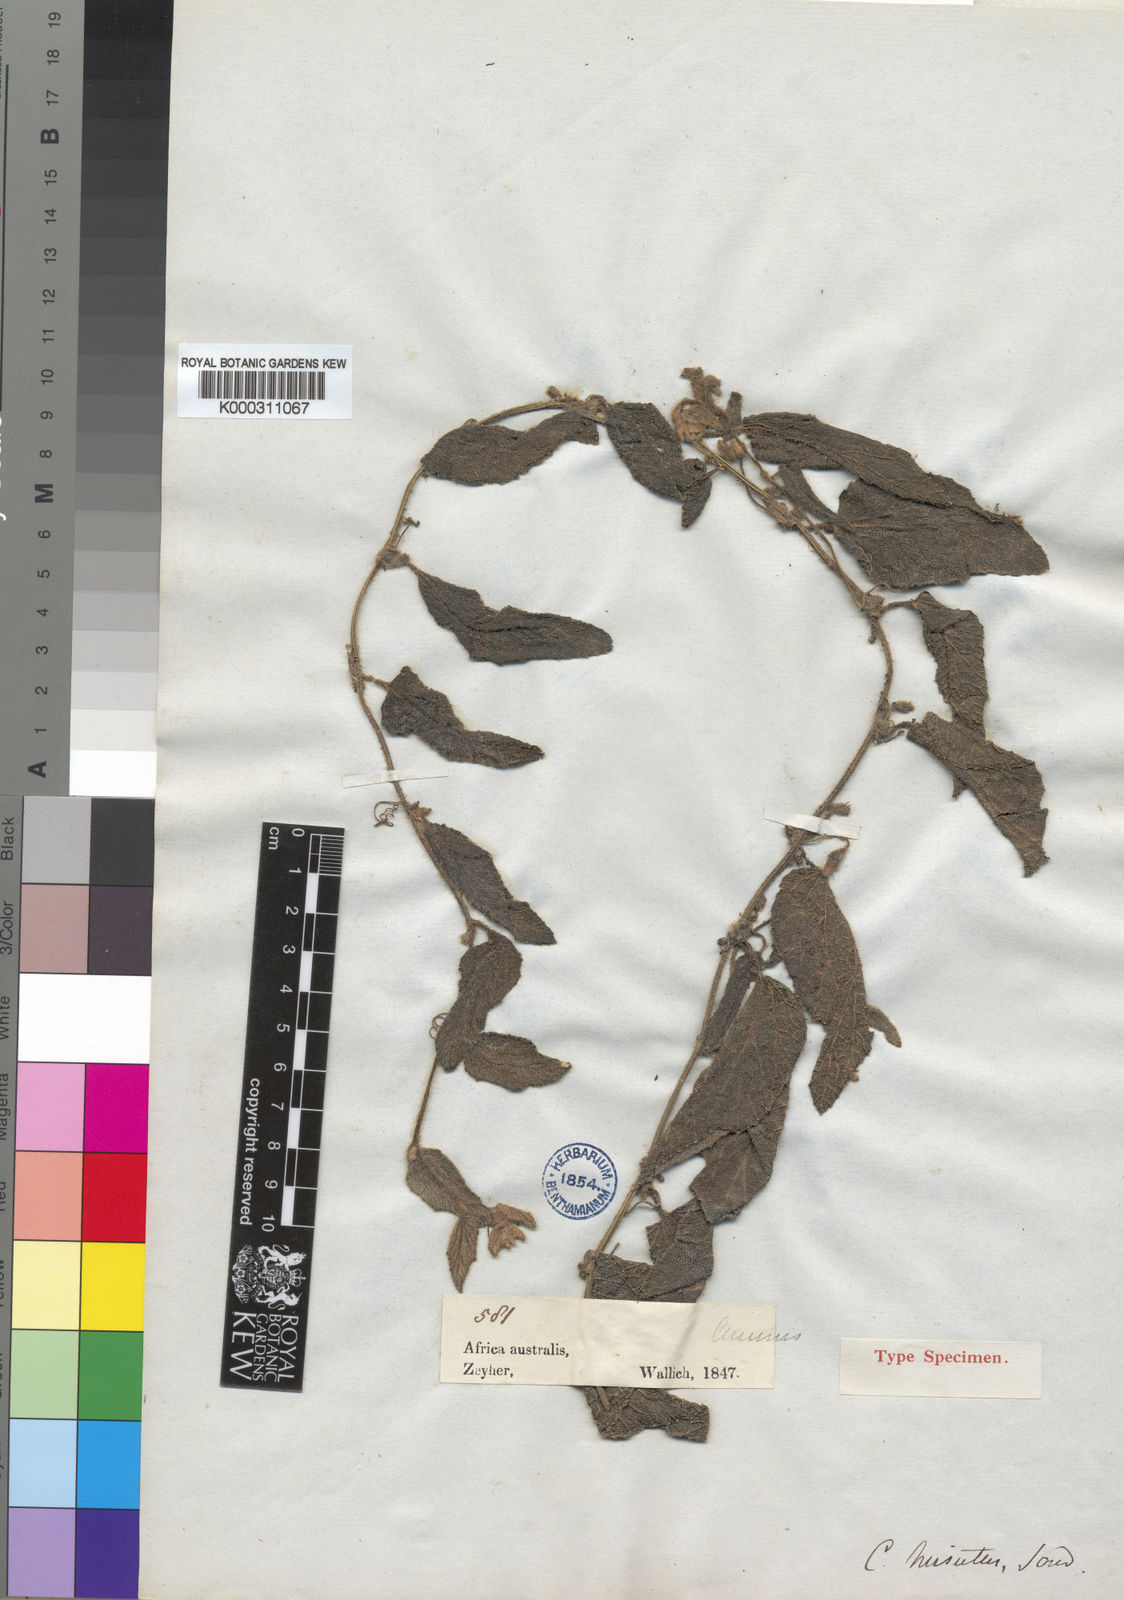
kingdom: Plantae
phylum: Tracheophyta
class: Magnoliopsida
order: Cucurbitales
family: Cucurbitaceae
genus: Cucumis
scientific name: Cucumis hirsutus
